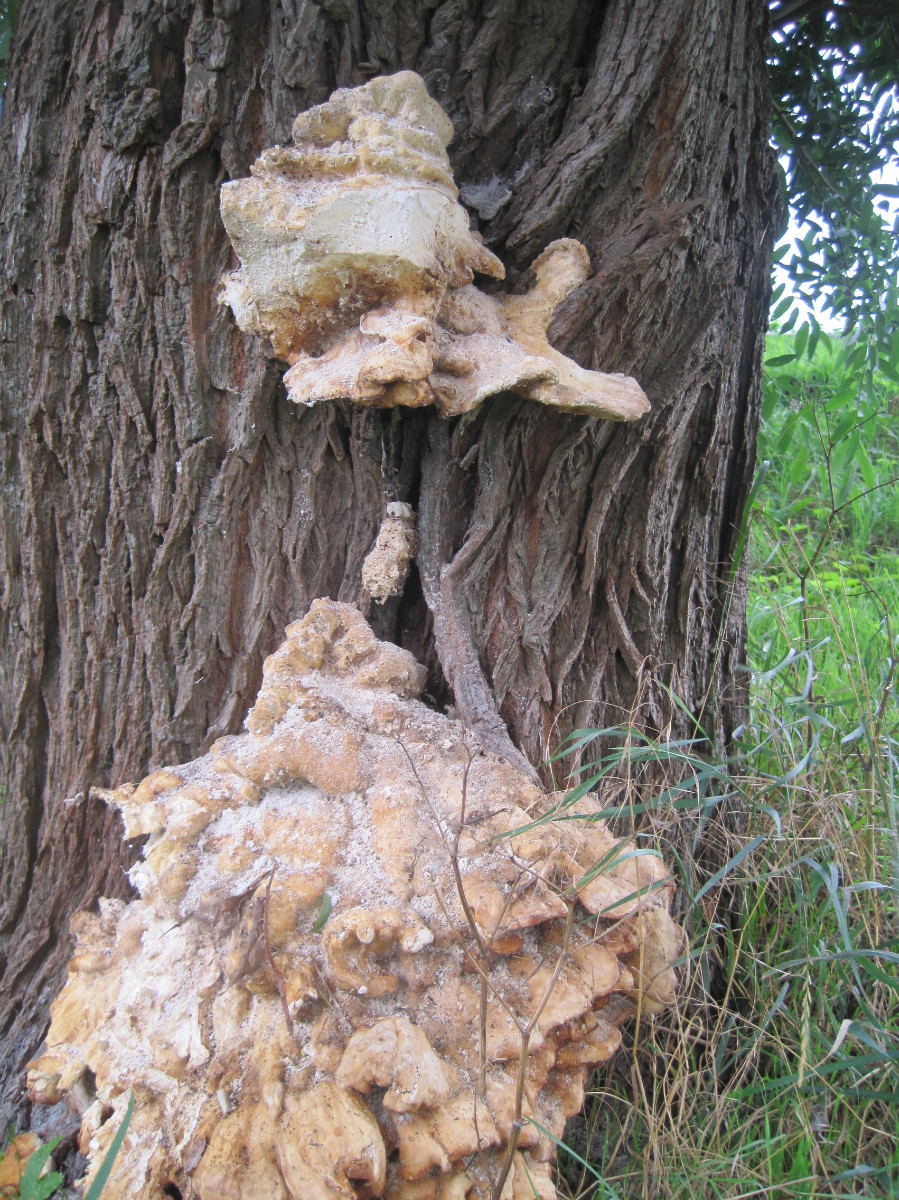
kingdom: Fungi
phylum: Basidiomycota
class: Agaricomycetes
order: Polyporales
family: Laetiporaceae
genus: Laetiporus
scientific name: Laetiporus sulphureus
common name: svovlporesvamp
